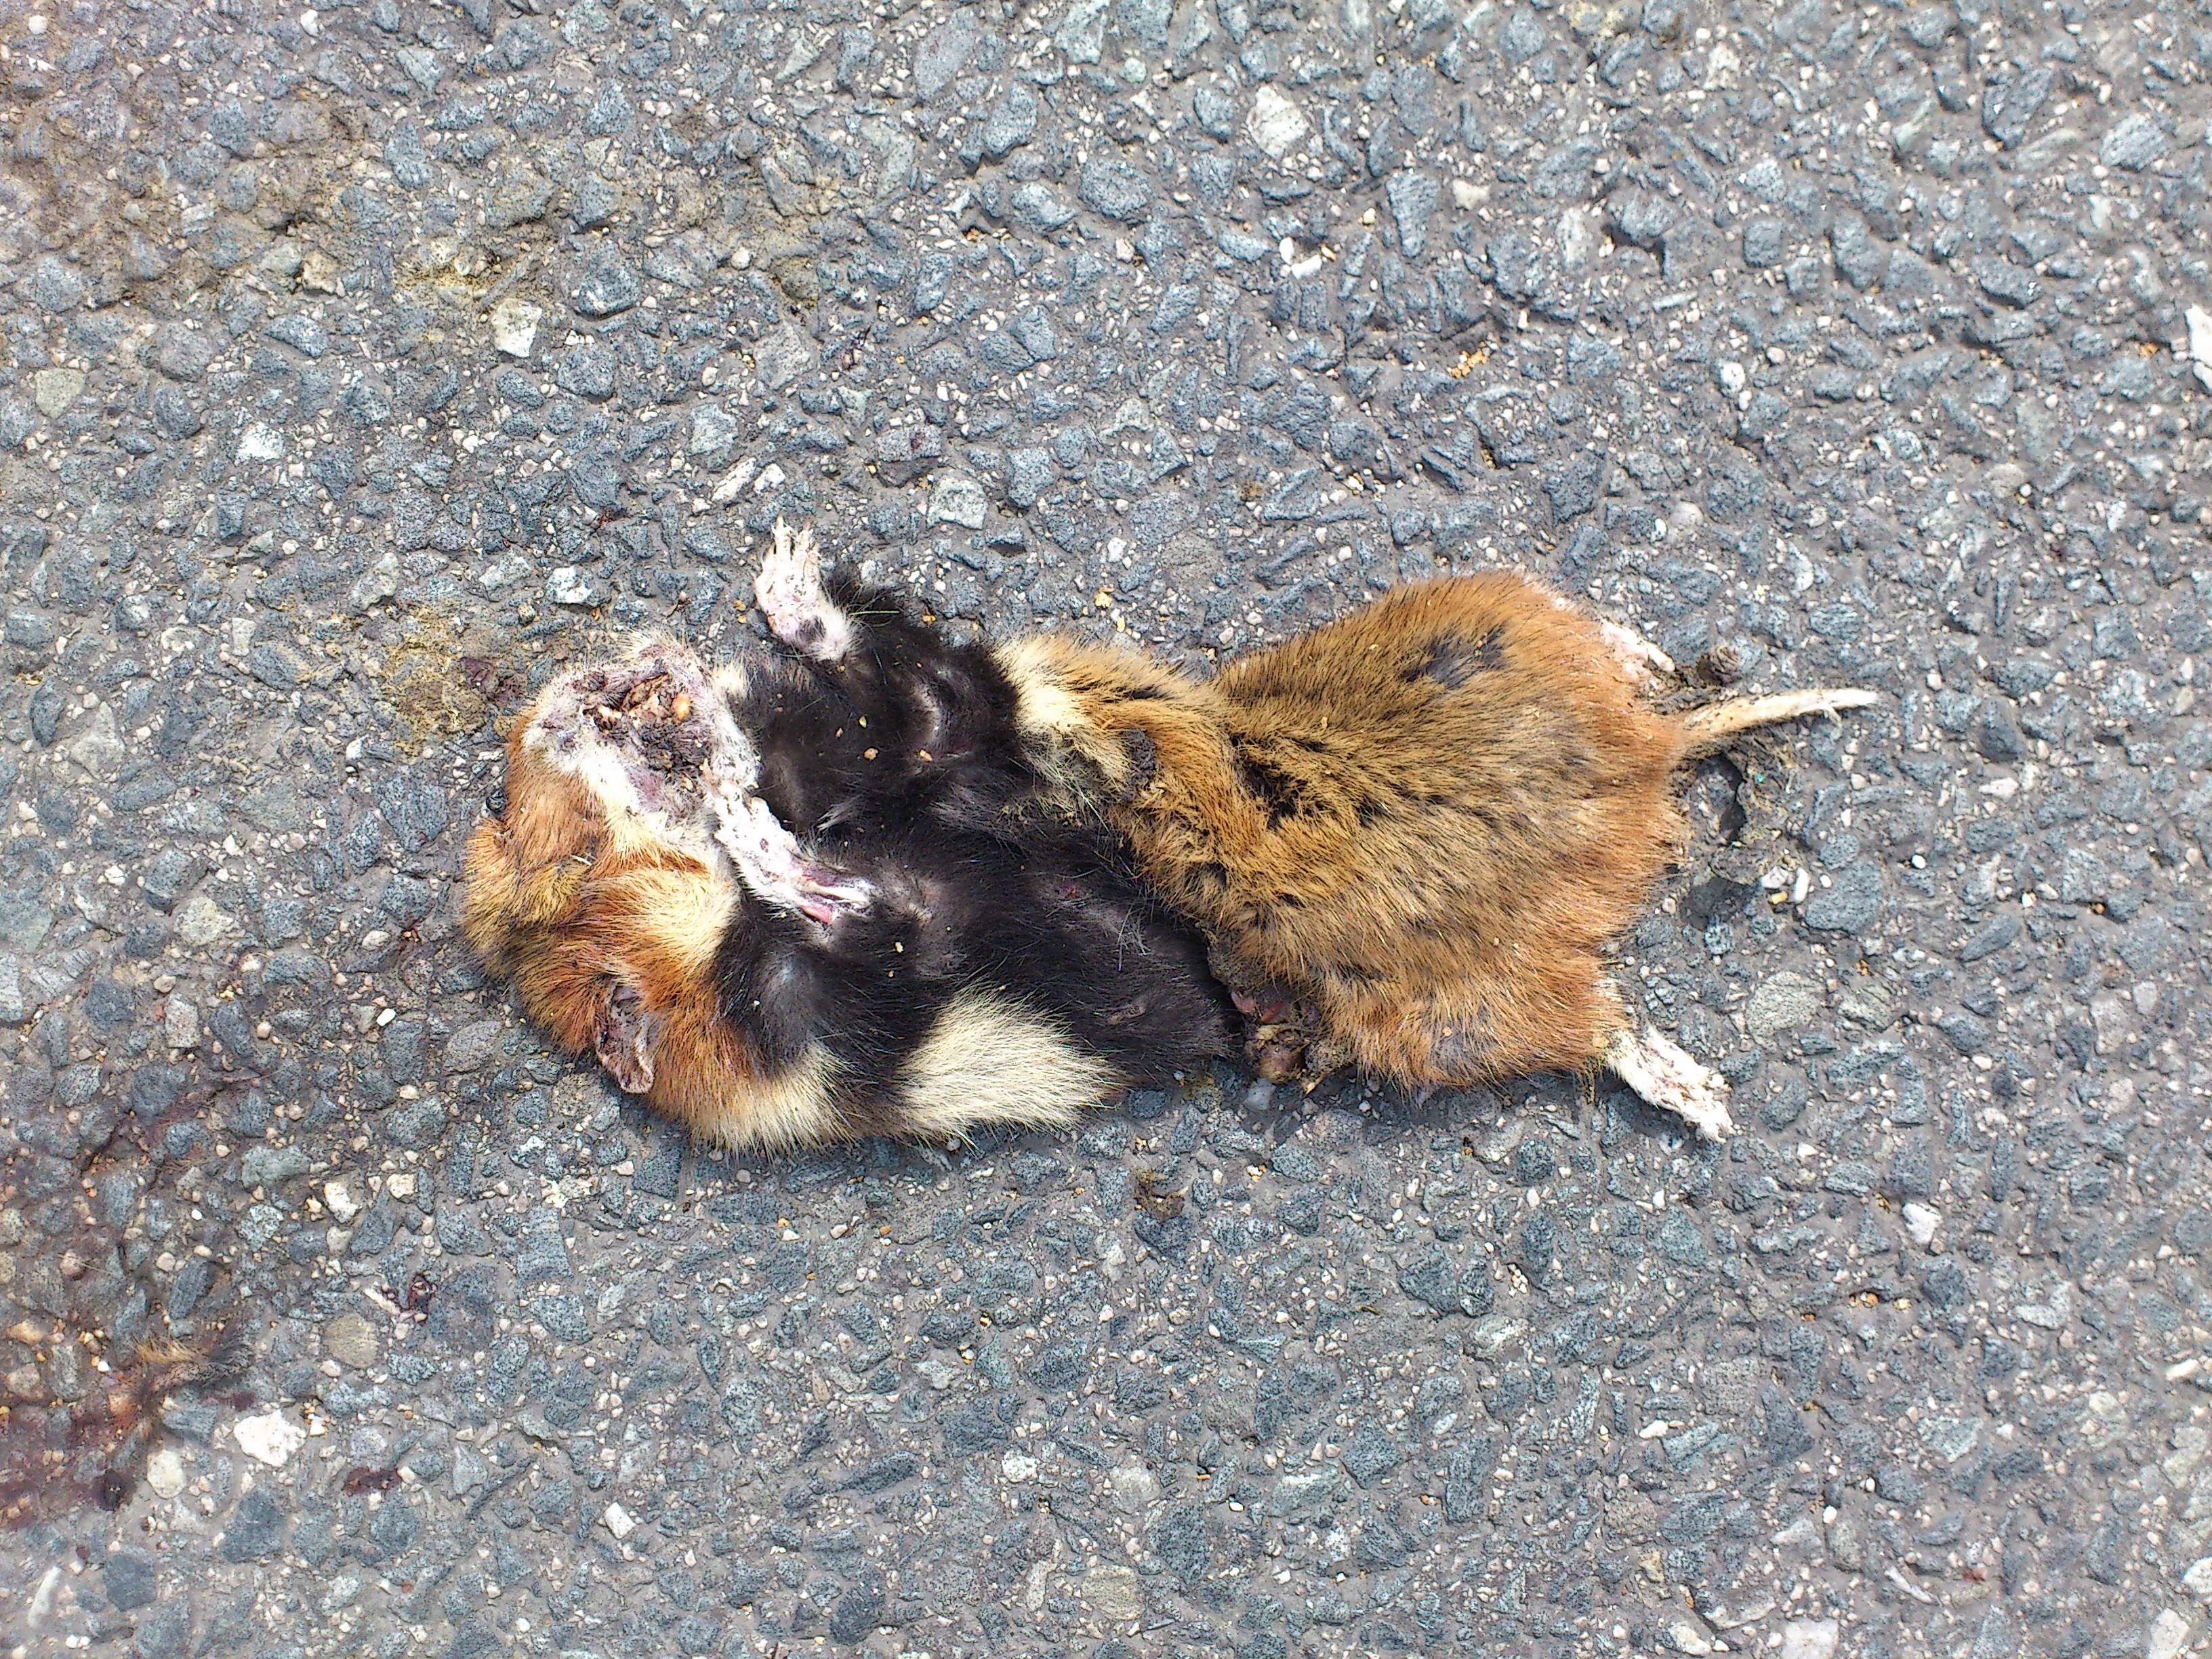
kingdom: Animalia
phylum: Chordata
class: Mammalia
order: Rodentia
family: Cricetidae
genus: Cricetus
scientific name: Cricetus cricetus
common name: Common hamster
